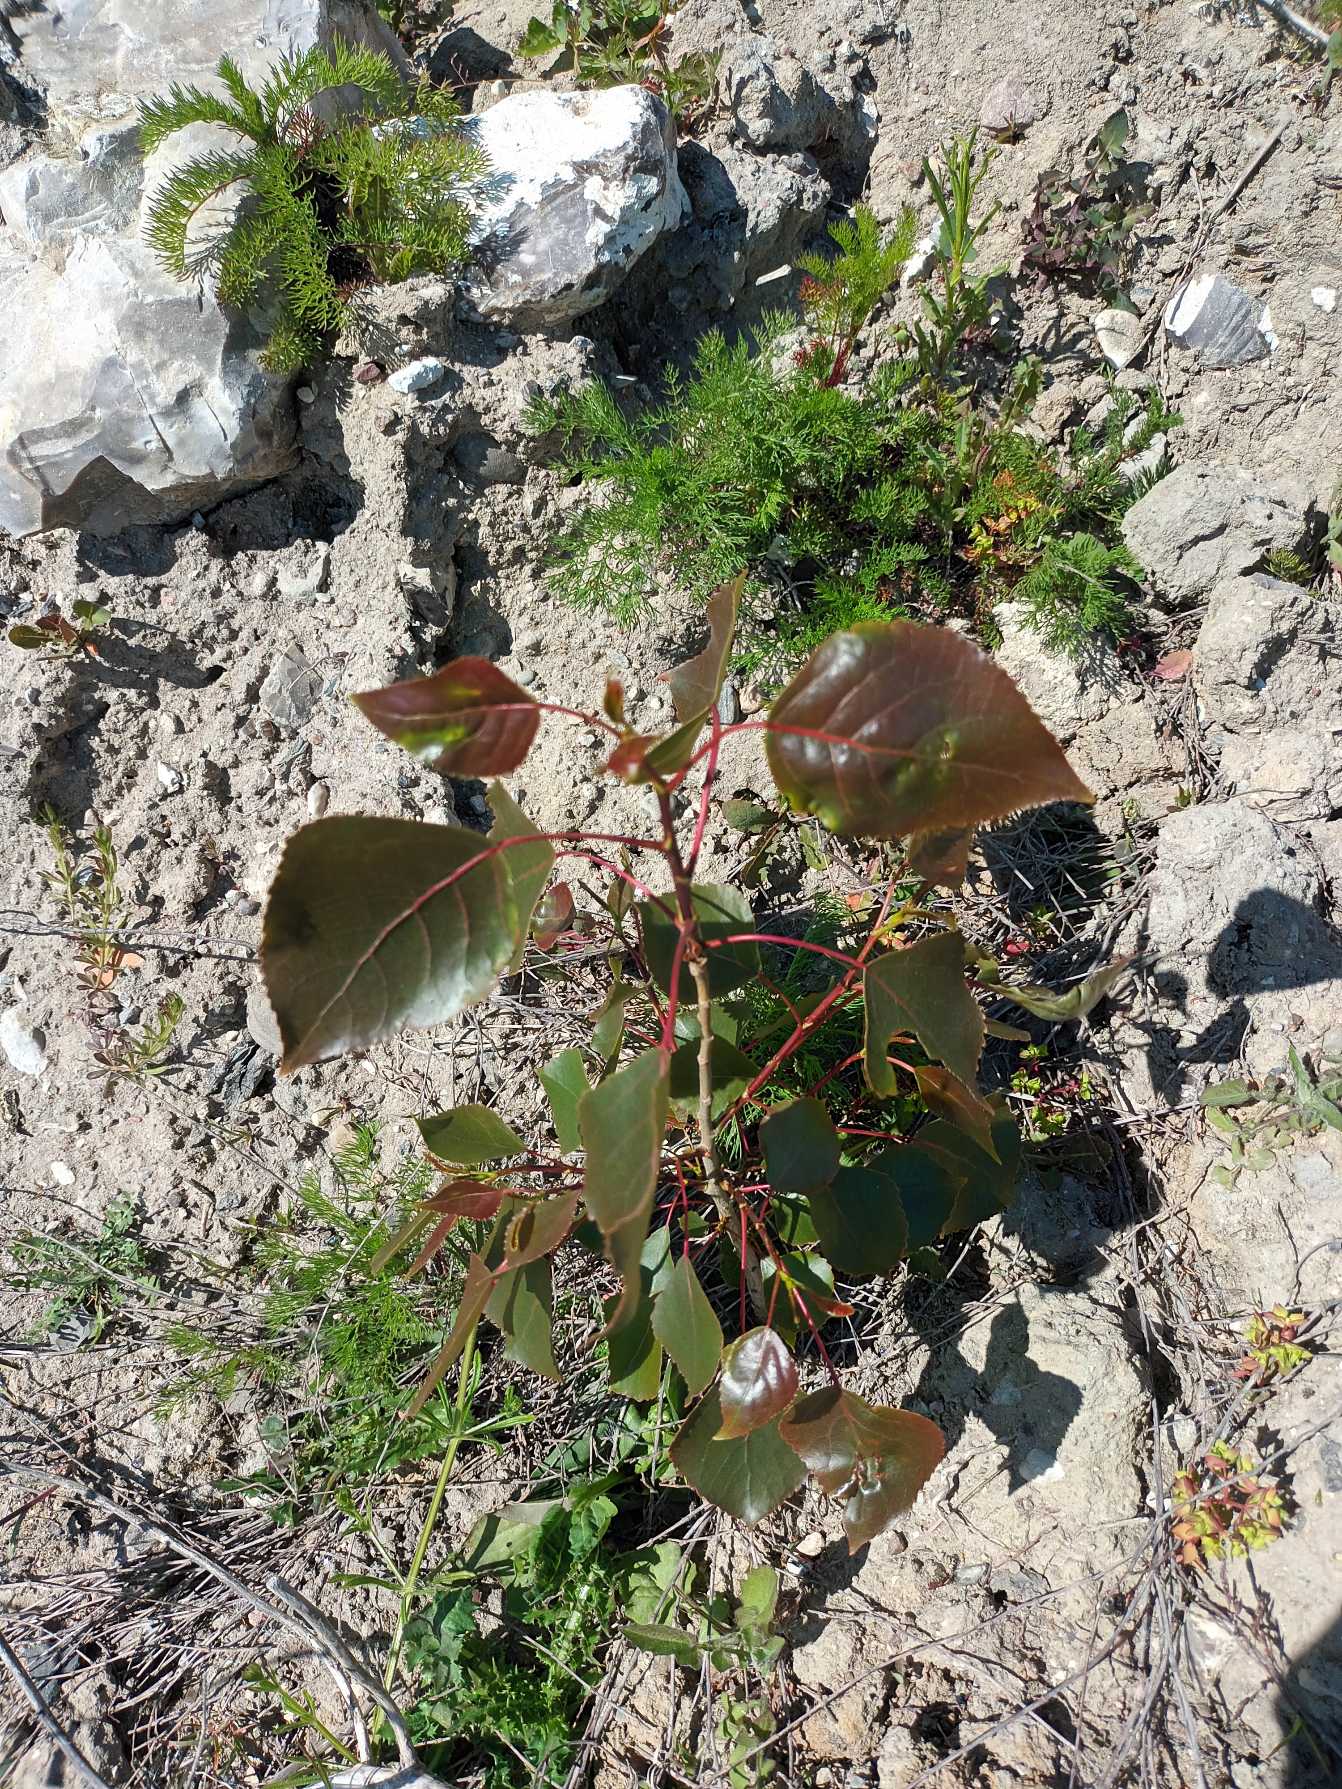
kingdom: Plantae
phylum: Tracheophyta
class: Magnoliopsida
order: Malpighiales
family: Salicaceae
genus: Populus
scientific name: Populus nigra
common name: Sort-poppel
